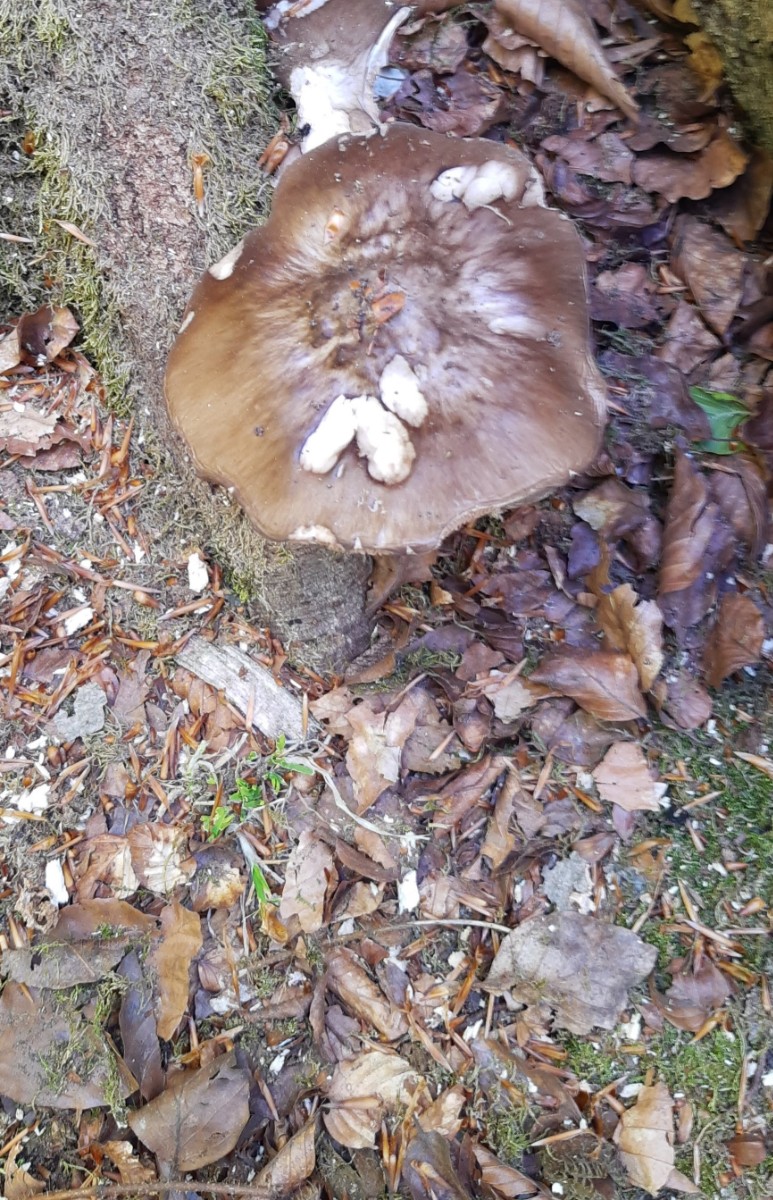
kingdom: Fungi
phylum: Basidiomycota
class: Agaricomycetes
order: Agaricales
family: Pluteaceae
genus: Pluteus
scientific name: Pluteus cervinus
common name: sodfarvet skærmhat
